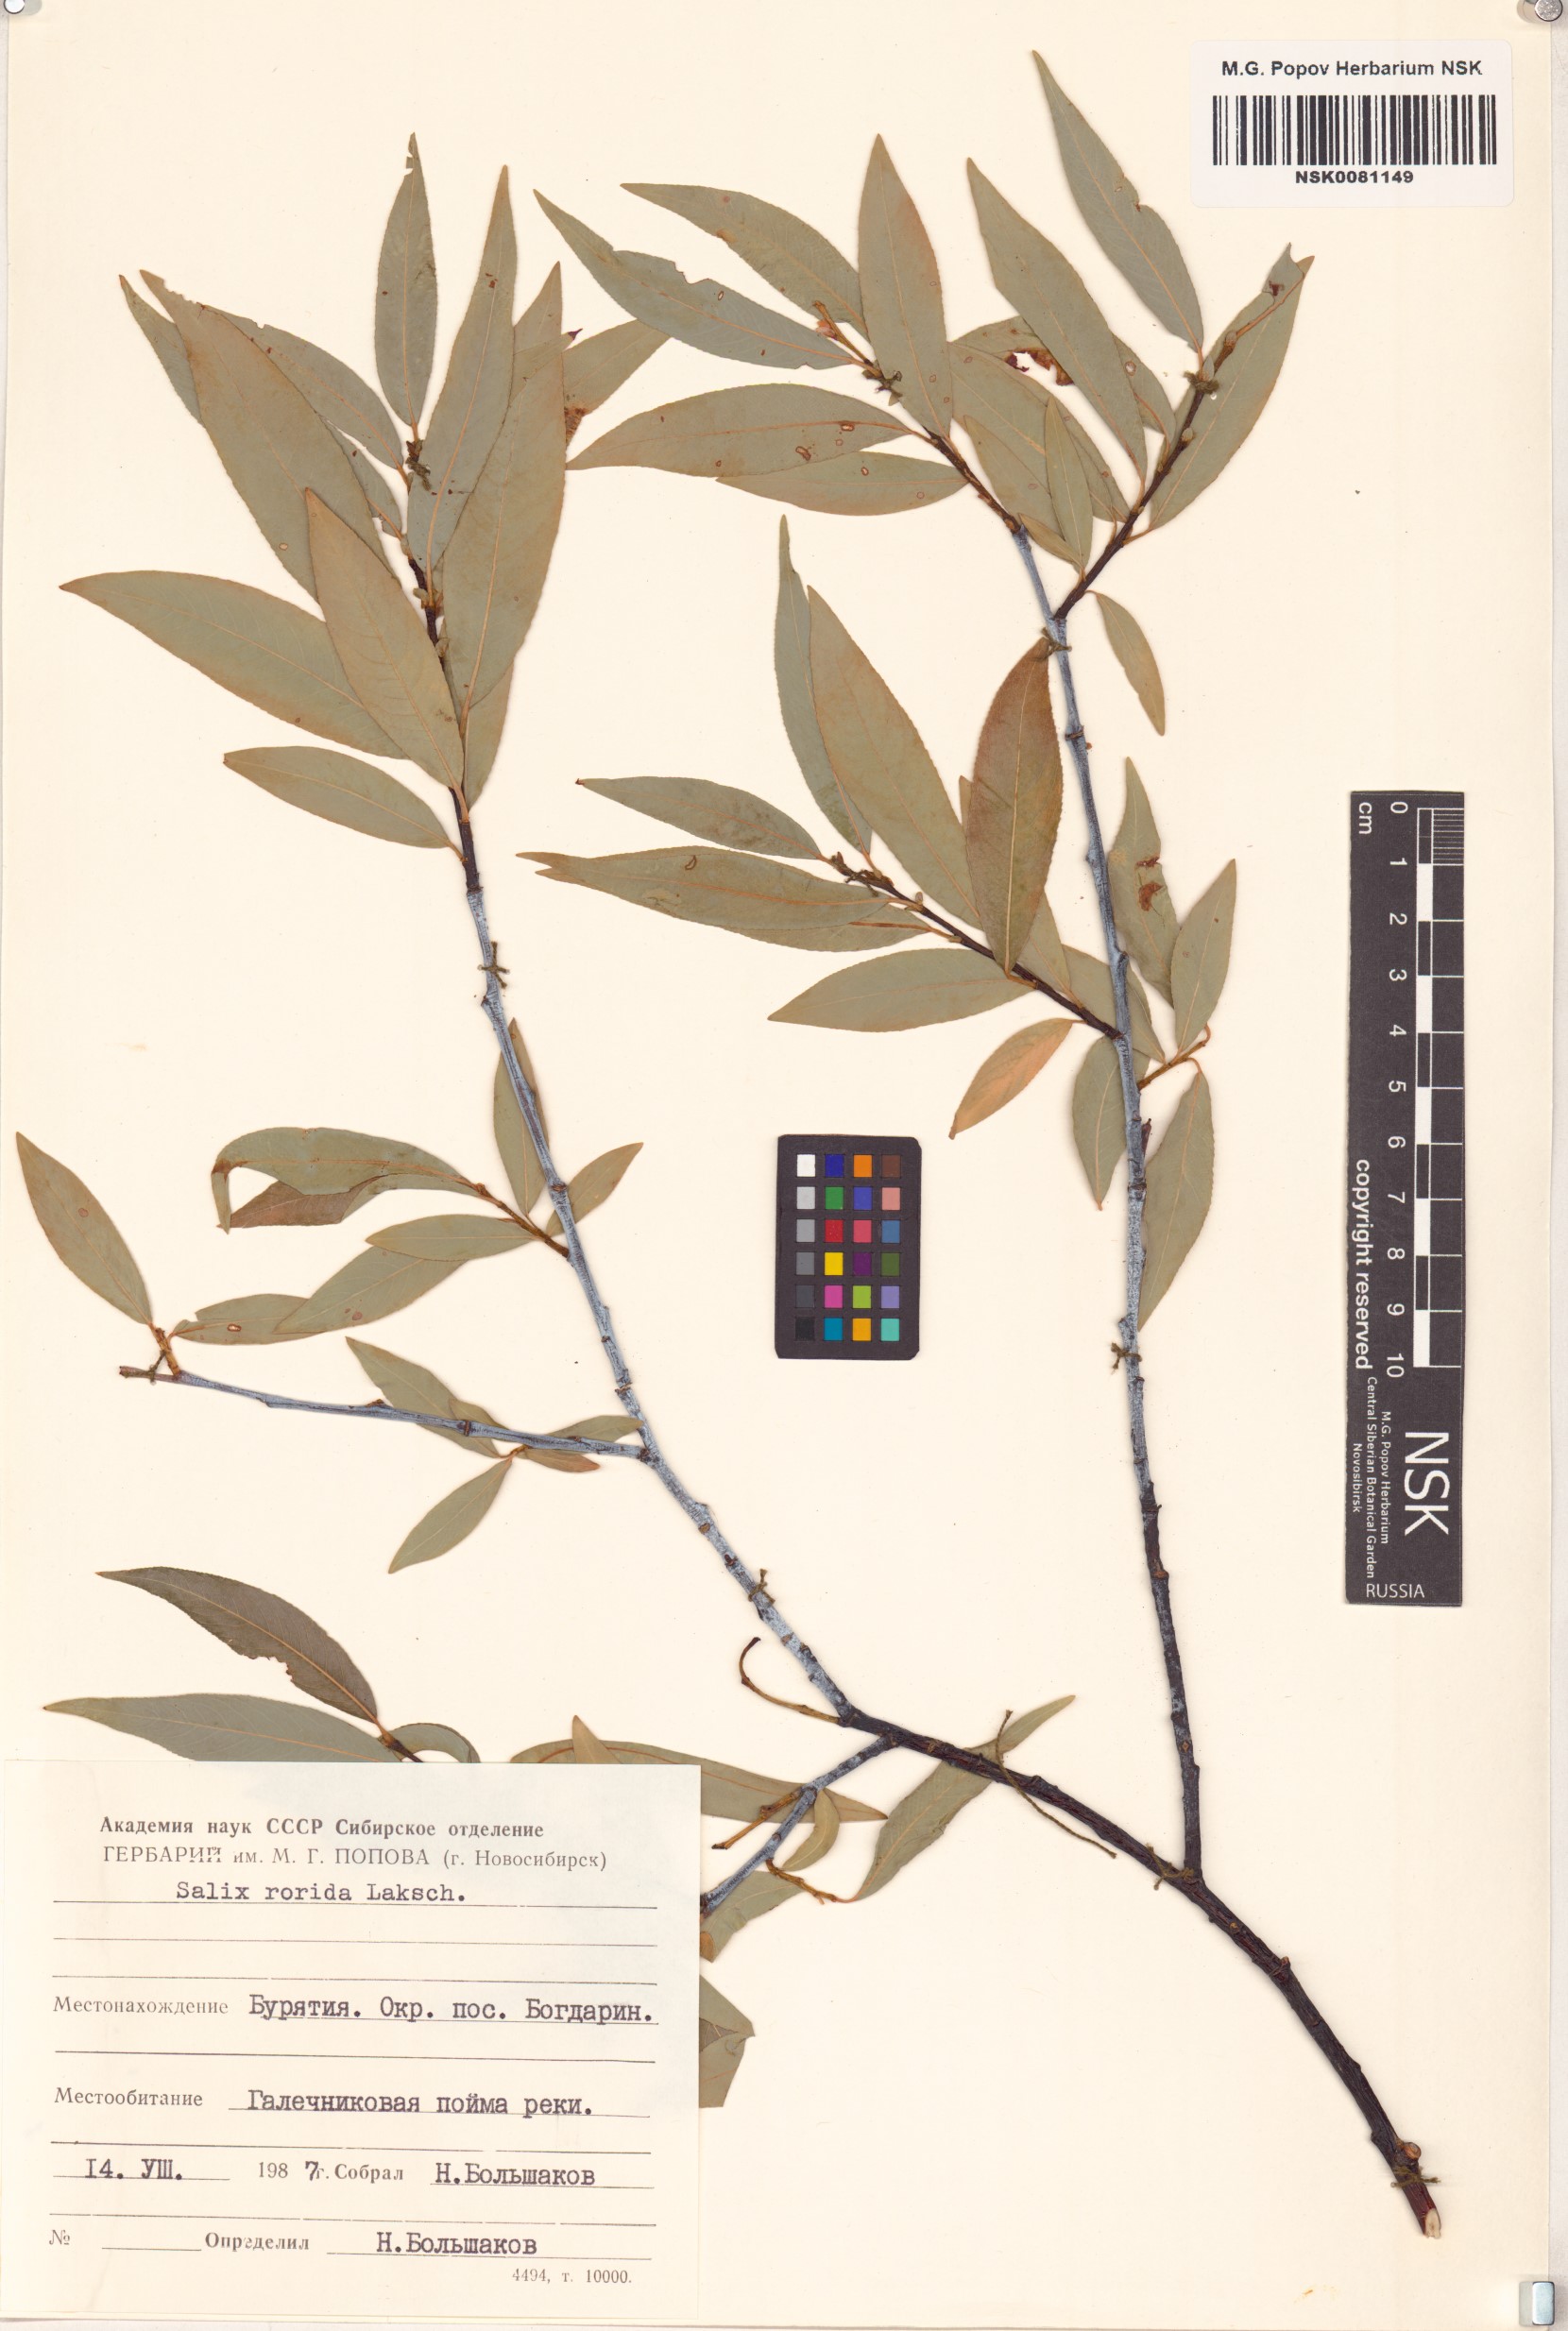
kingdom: Plantae
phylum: Tracheophyta
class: Magnoliopsida
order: Malpighiales
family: Salicaceae
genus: Salix
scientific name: Salix rorida
